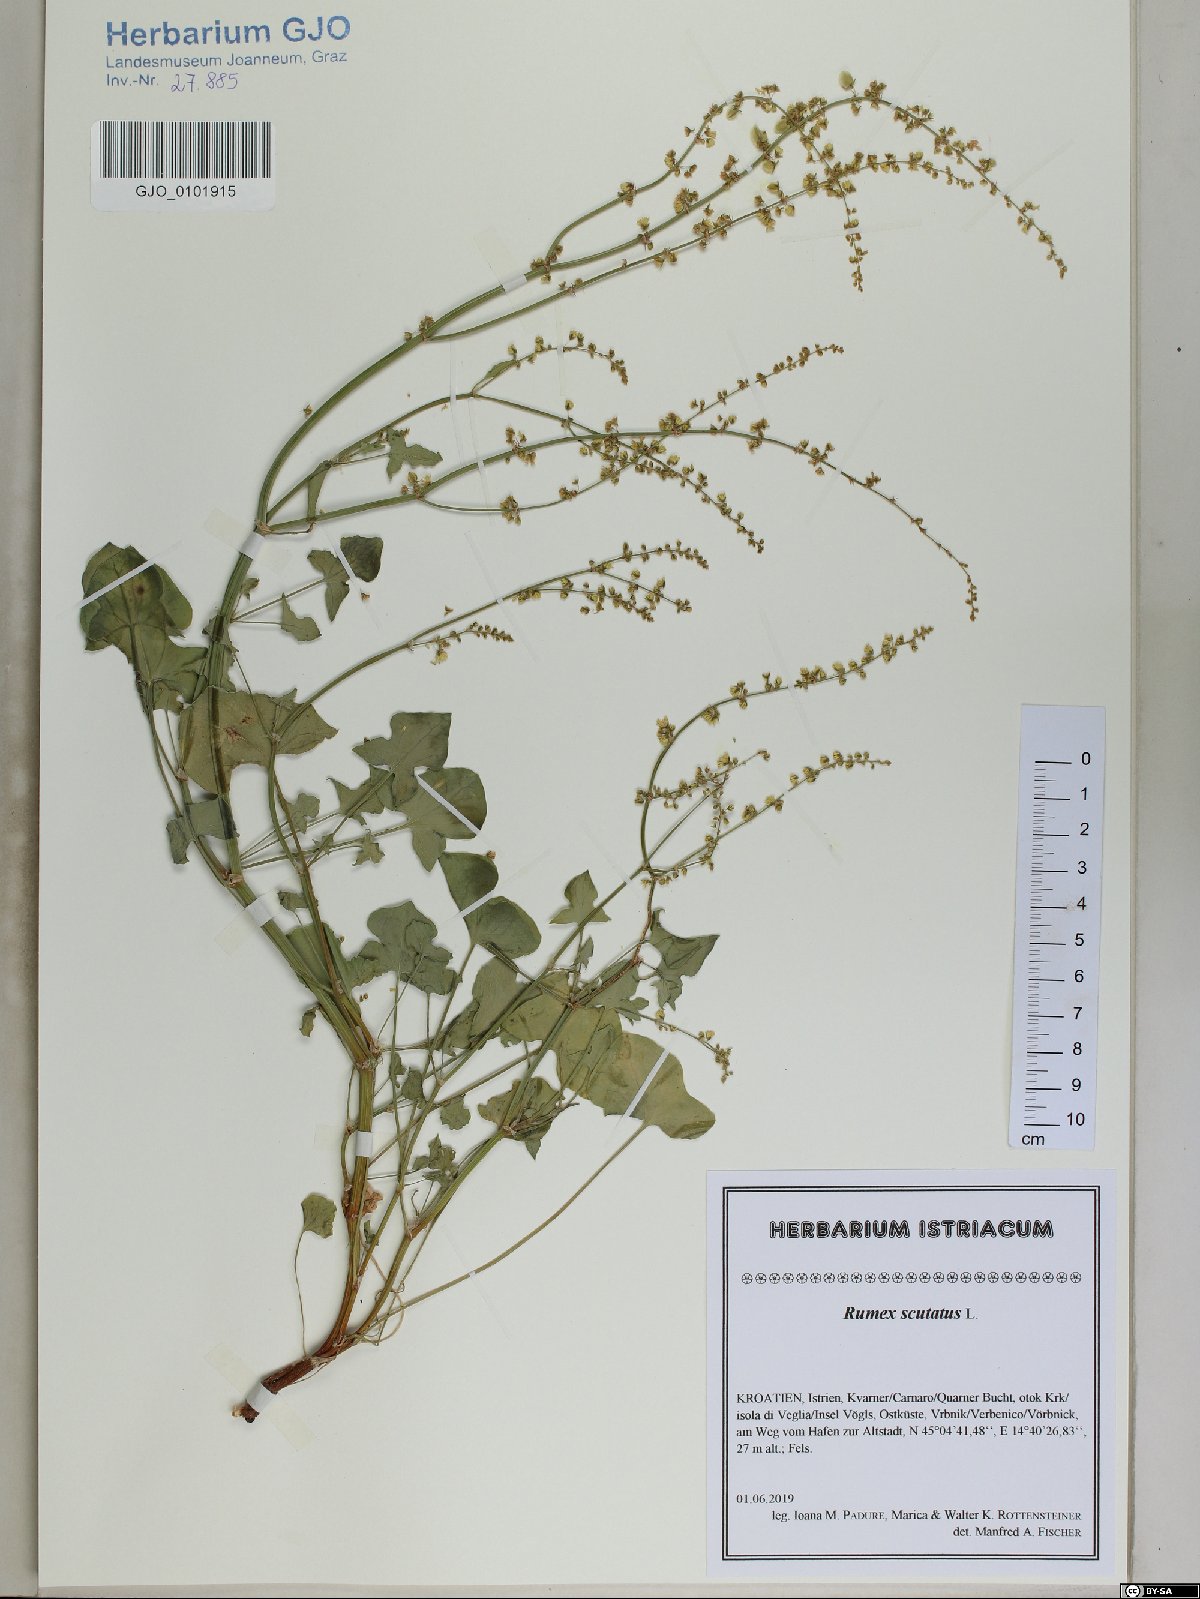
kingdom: Plantae
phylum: Tracheophyta
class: Magnoliopsida
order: Caryophyllales
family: Polygonaceae
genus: Rumex
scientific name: Rumex scutatus
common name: French sorrel
